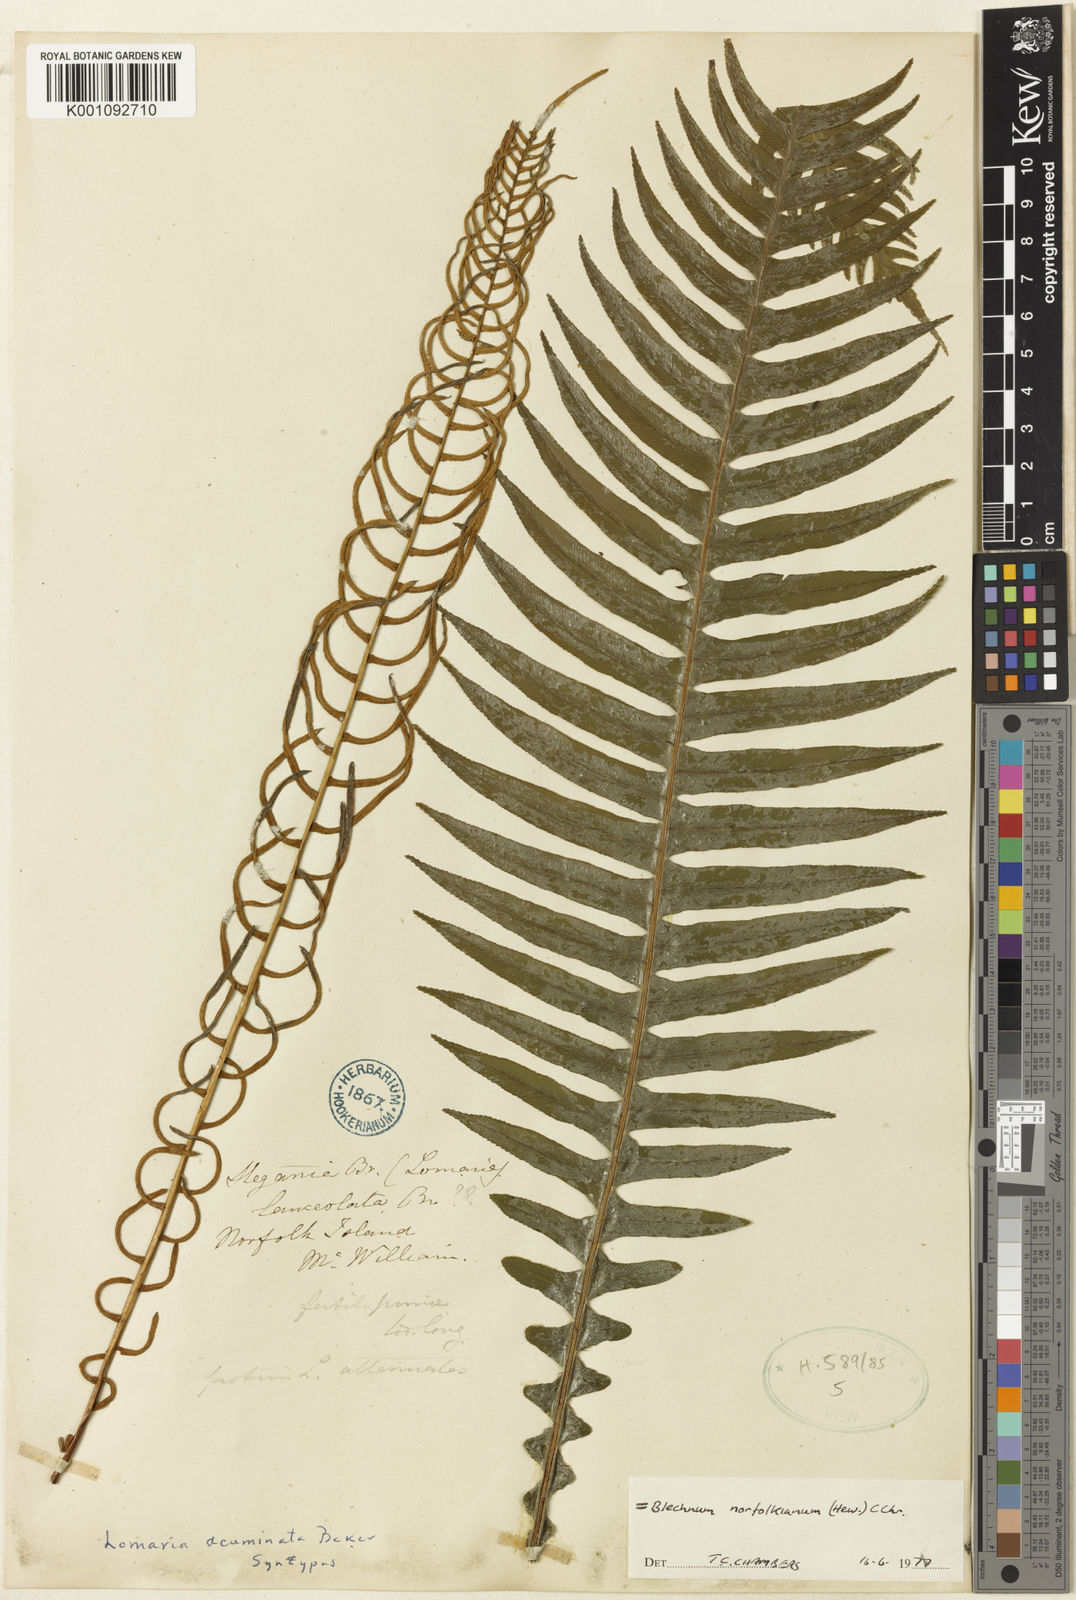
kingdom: Plantae
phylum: Tracheophyta
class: Polypodiopsida
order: Polypodiales
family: Blechnaceae
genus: Austroblechnum
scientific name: Austroblechnum norfolkianum
